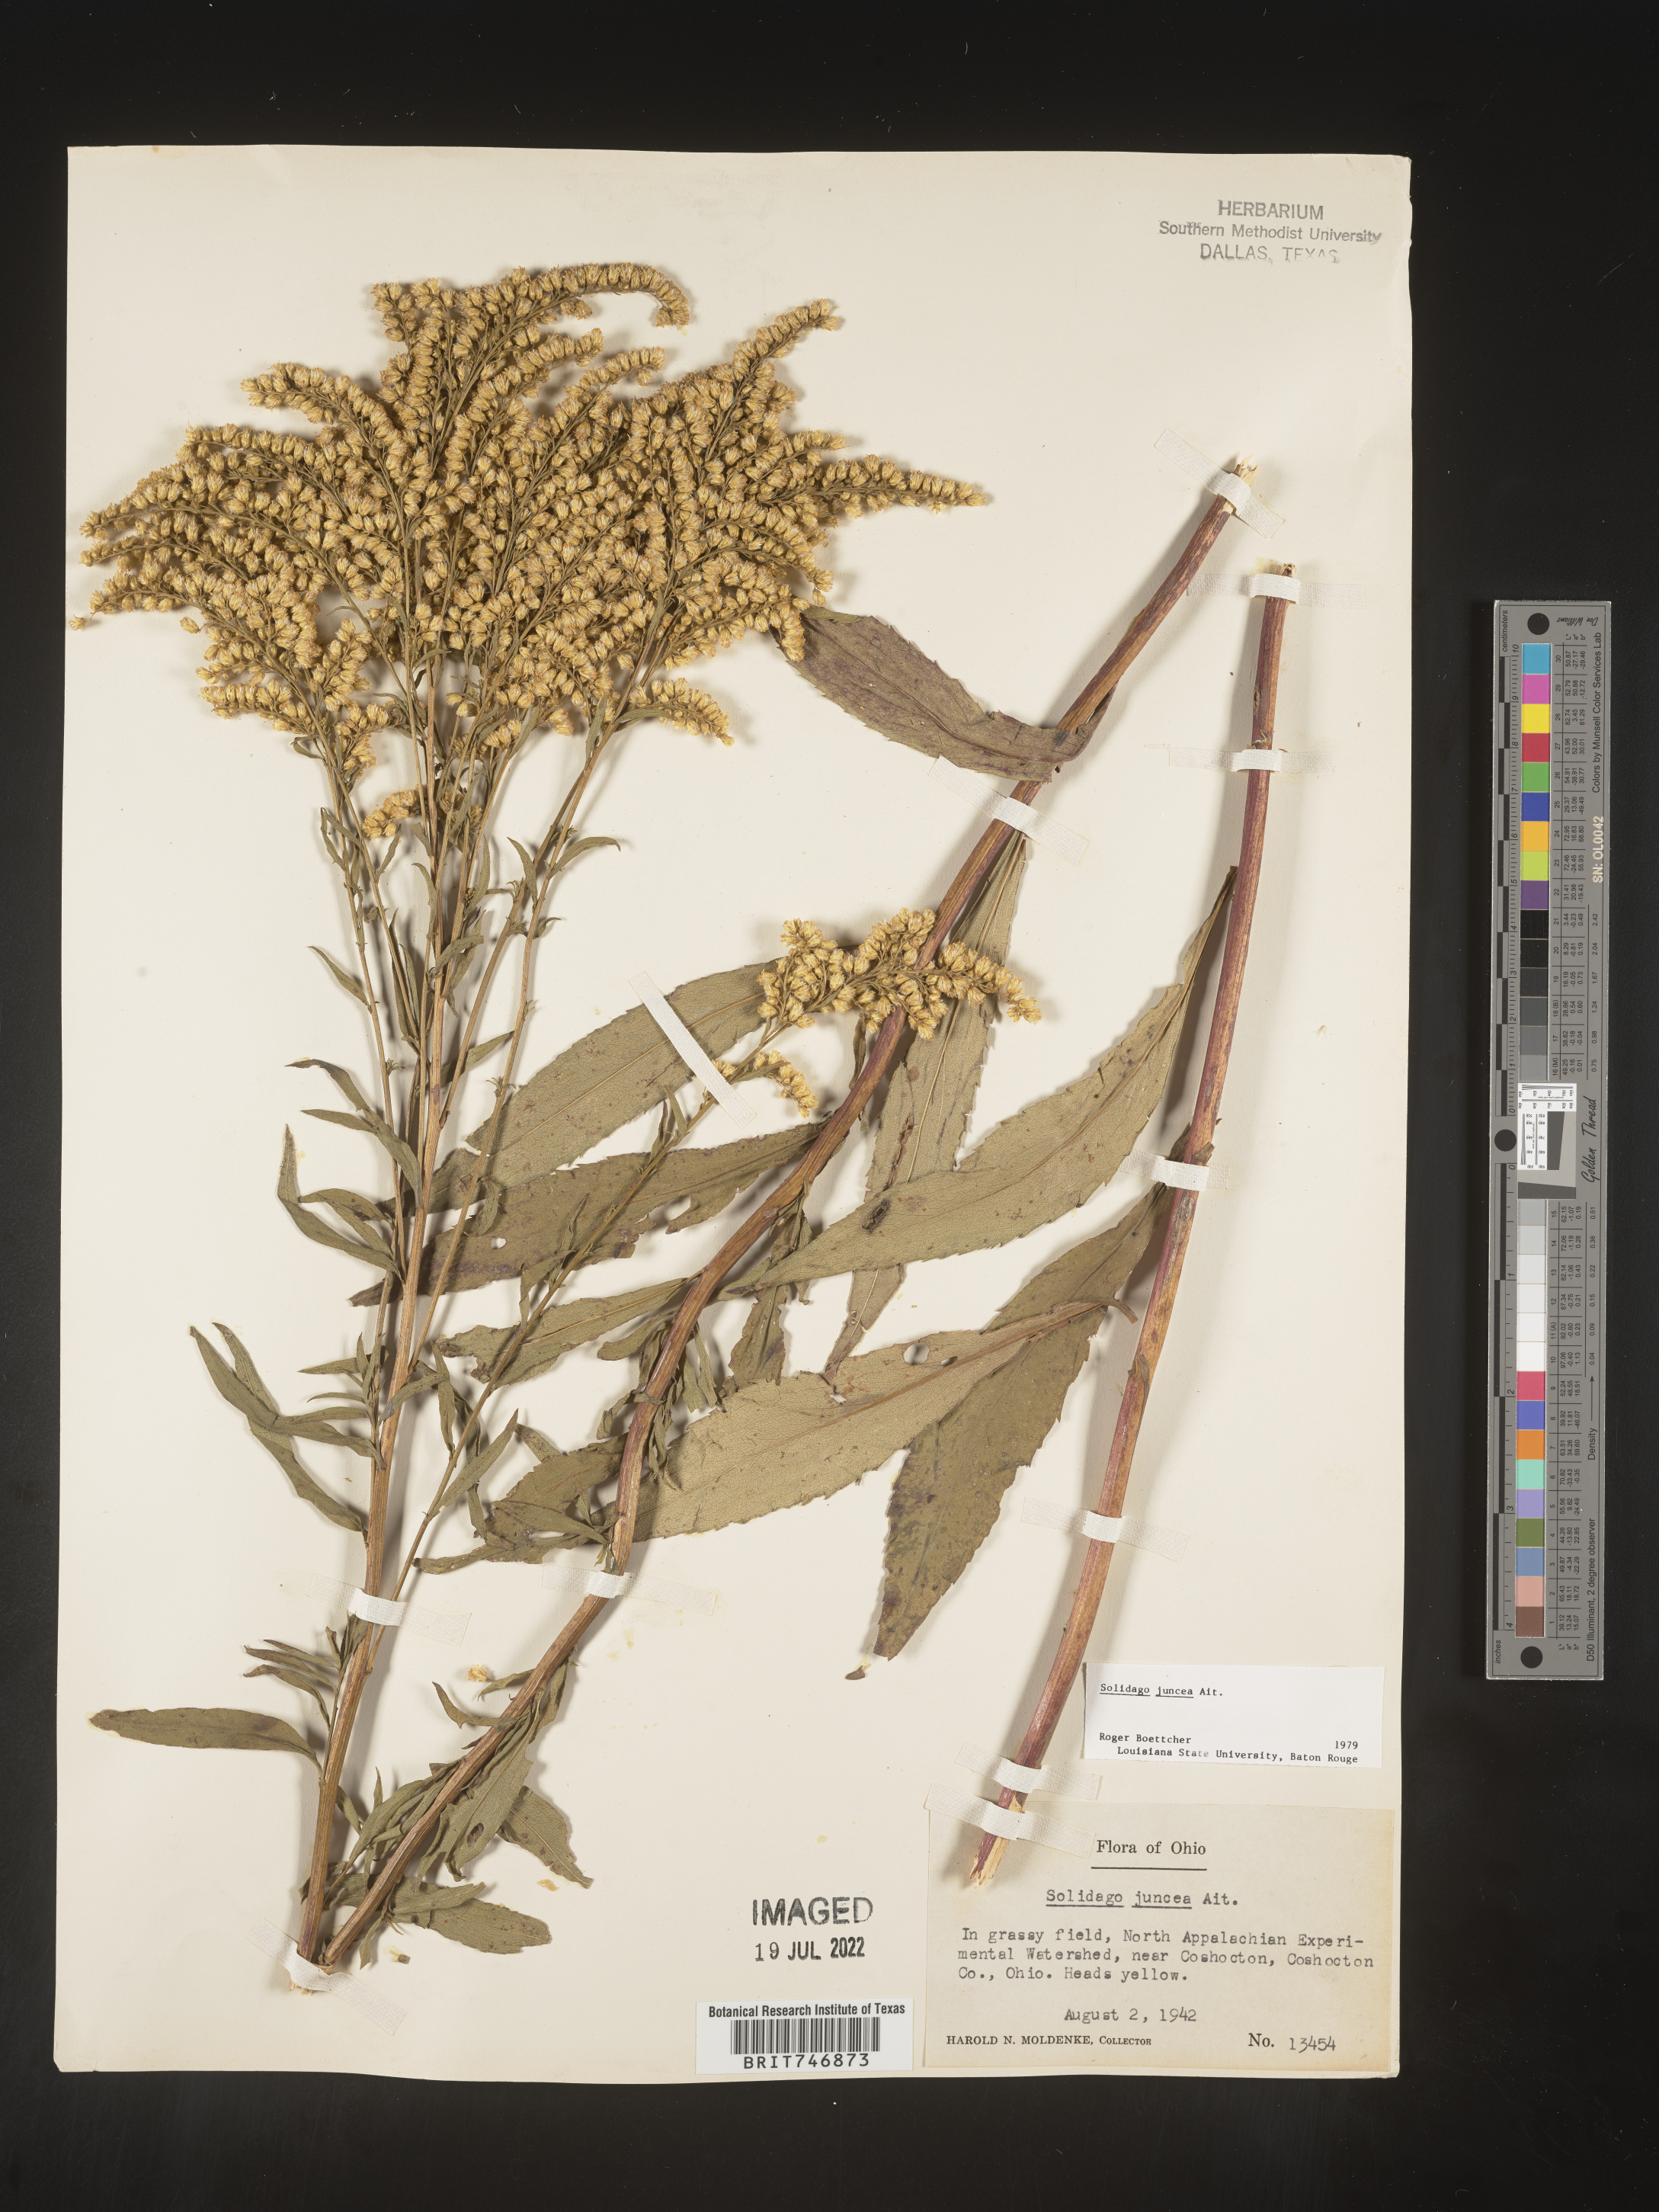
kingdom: Plantae
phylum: Tracheophyta
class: Magnoliopsida
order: Asterales
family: Asteraceae
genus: Solidago
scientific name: Solidago juncea
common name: Early goldenrod
